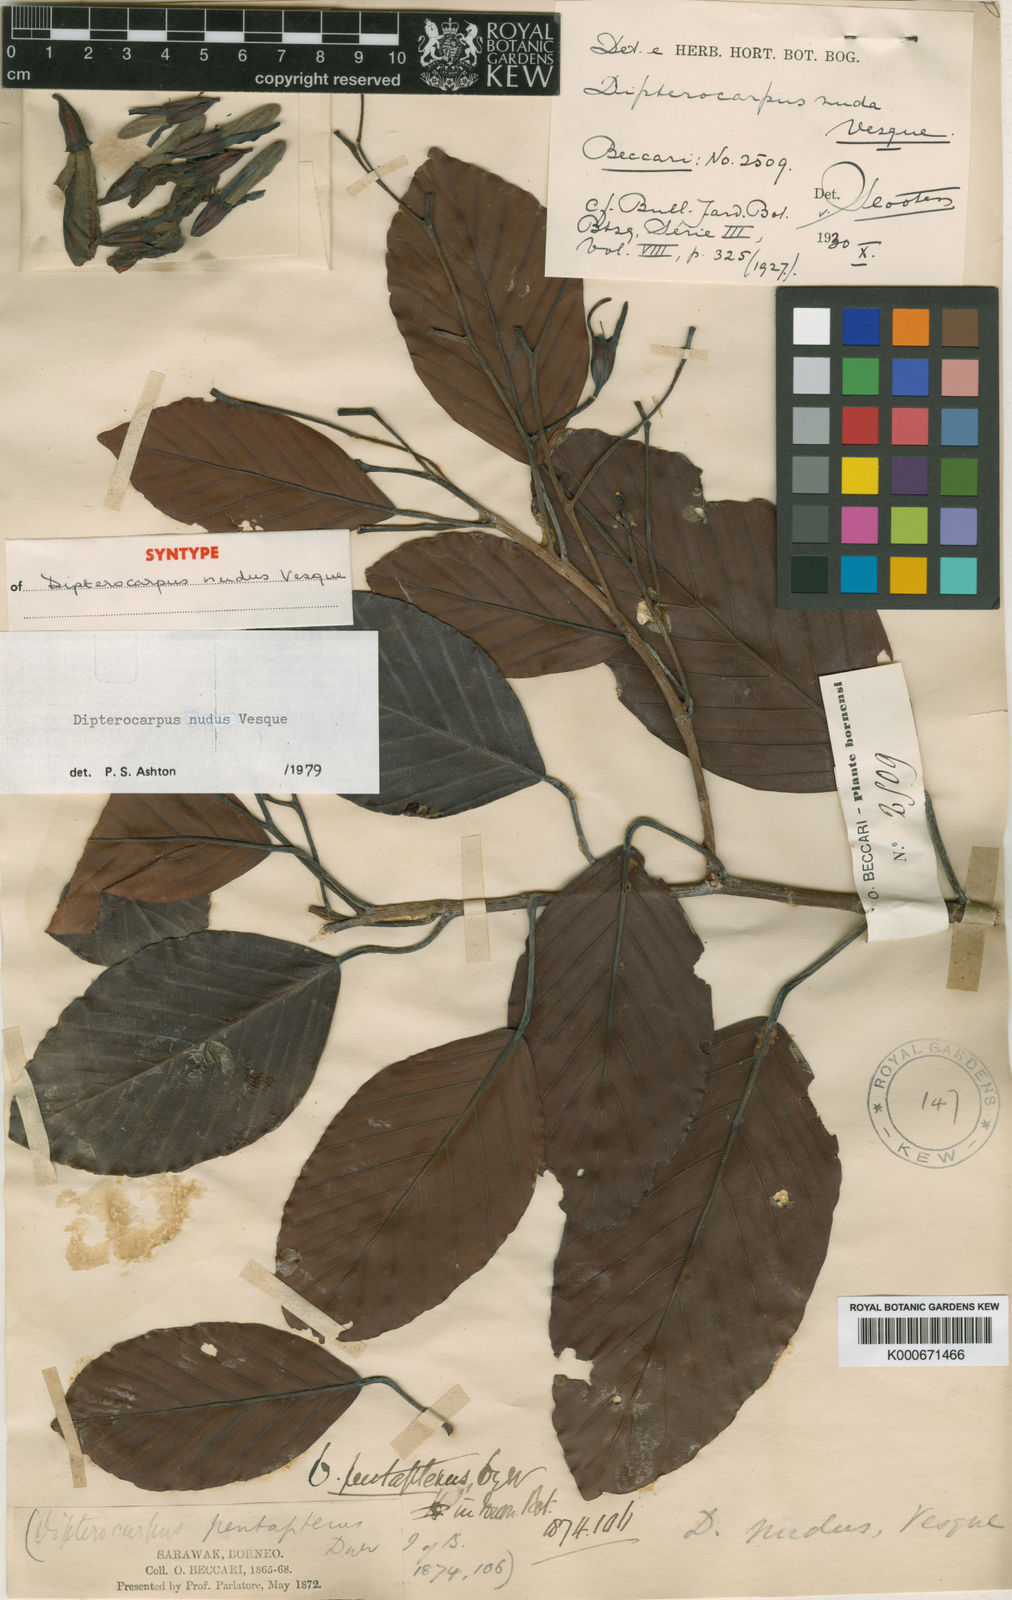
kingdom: Plantae
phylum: Tracheophyta
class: Magnoliopsida
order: Malvales
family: Dipterocarpaceae
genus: Dipterocarpus
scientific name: Dipterocarpus nudus
